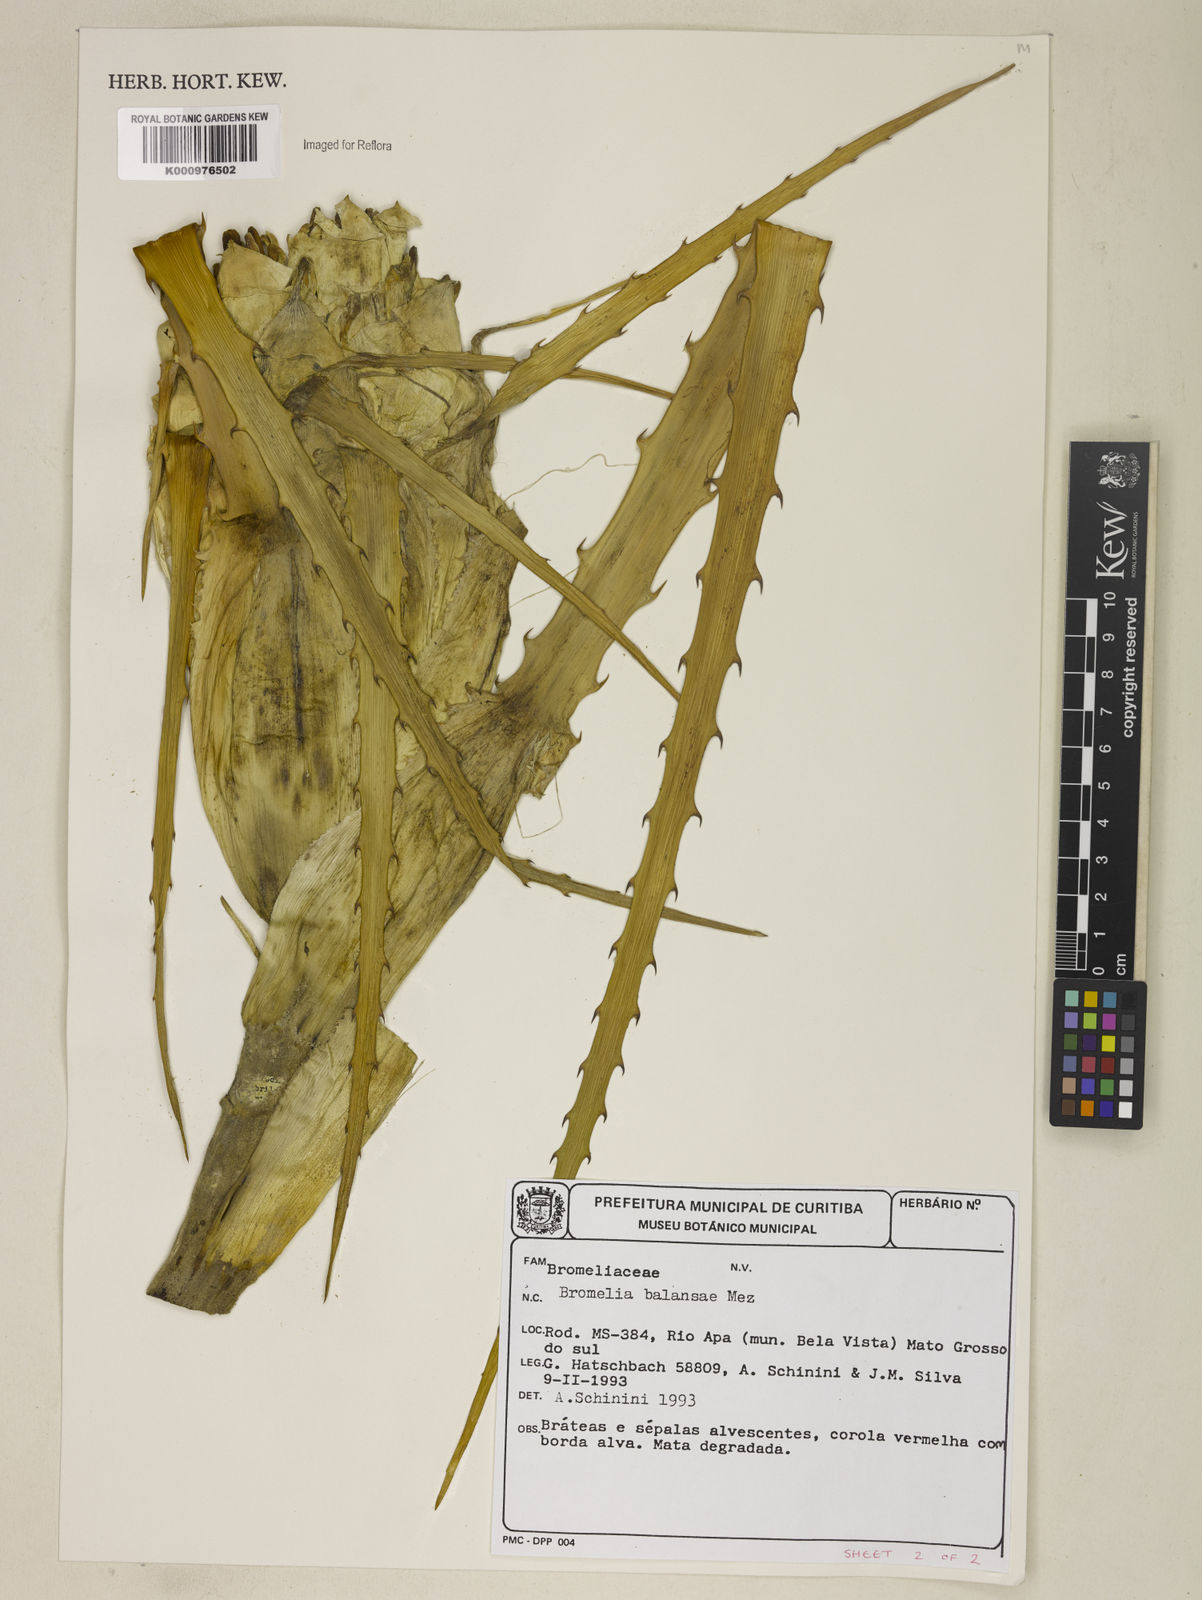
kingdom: Plantae
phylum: Tracheophyta
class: Liliopsida
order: Poales
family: Bromeliaceae
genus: Bromelia
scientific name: Bromelia balansae
